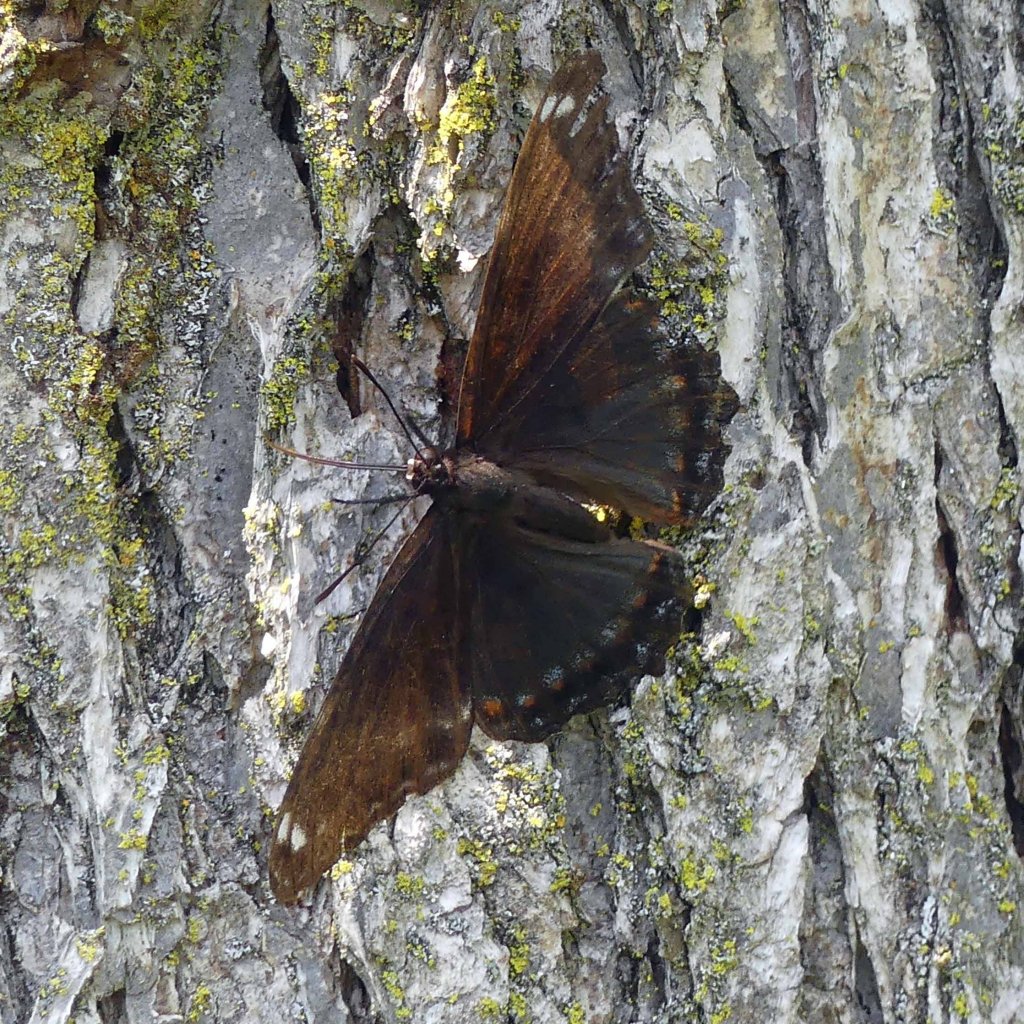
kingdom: Animalia
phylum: Arthropoda
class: Insecta
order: Lepidoptera
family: Nymphalidae
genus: Limenitis
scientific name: Limenitis astyanax
